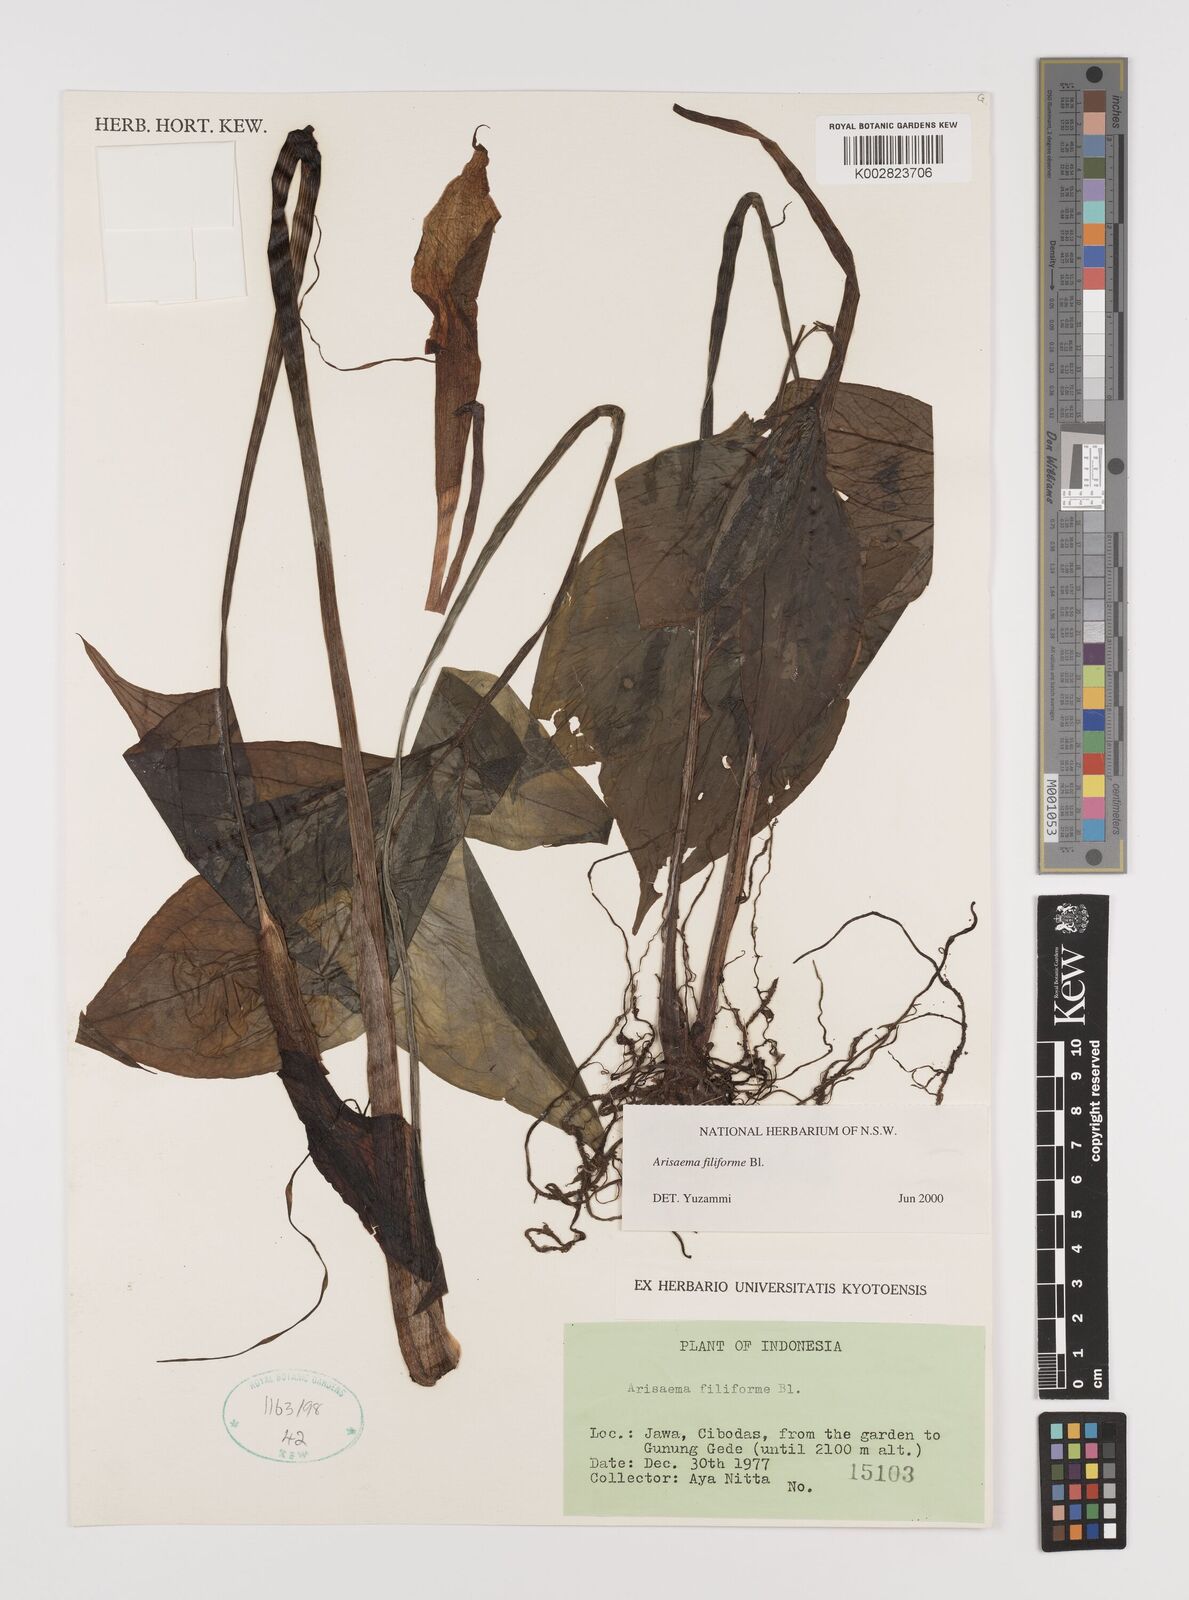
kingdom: Plantae
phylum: Tracheophyta
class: Liliopsida
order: Alismatales
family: Araceae
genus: Arisaema
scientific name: Arisaema filiforme
